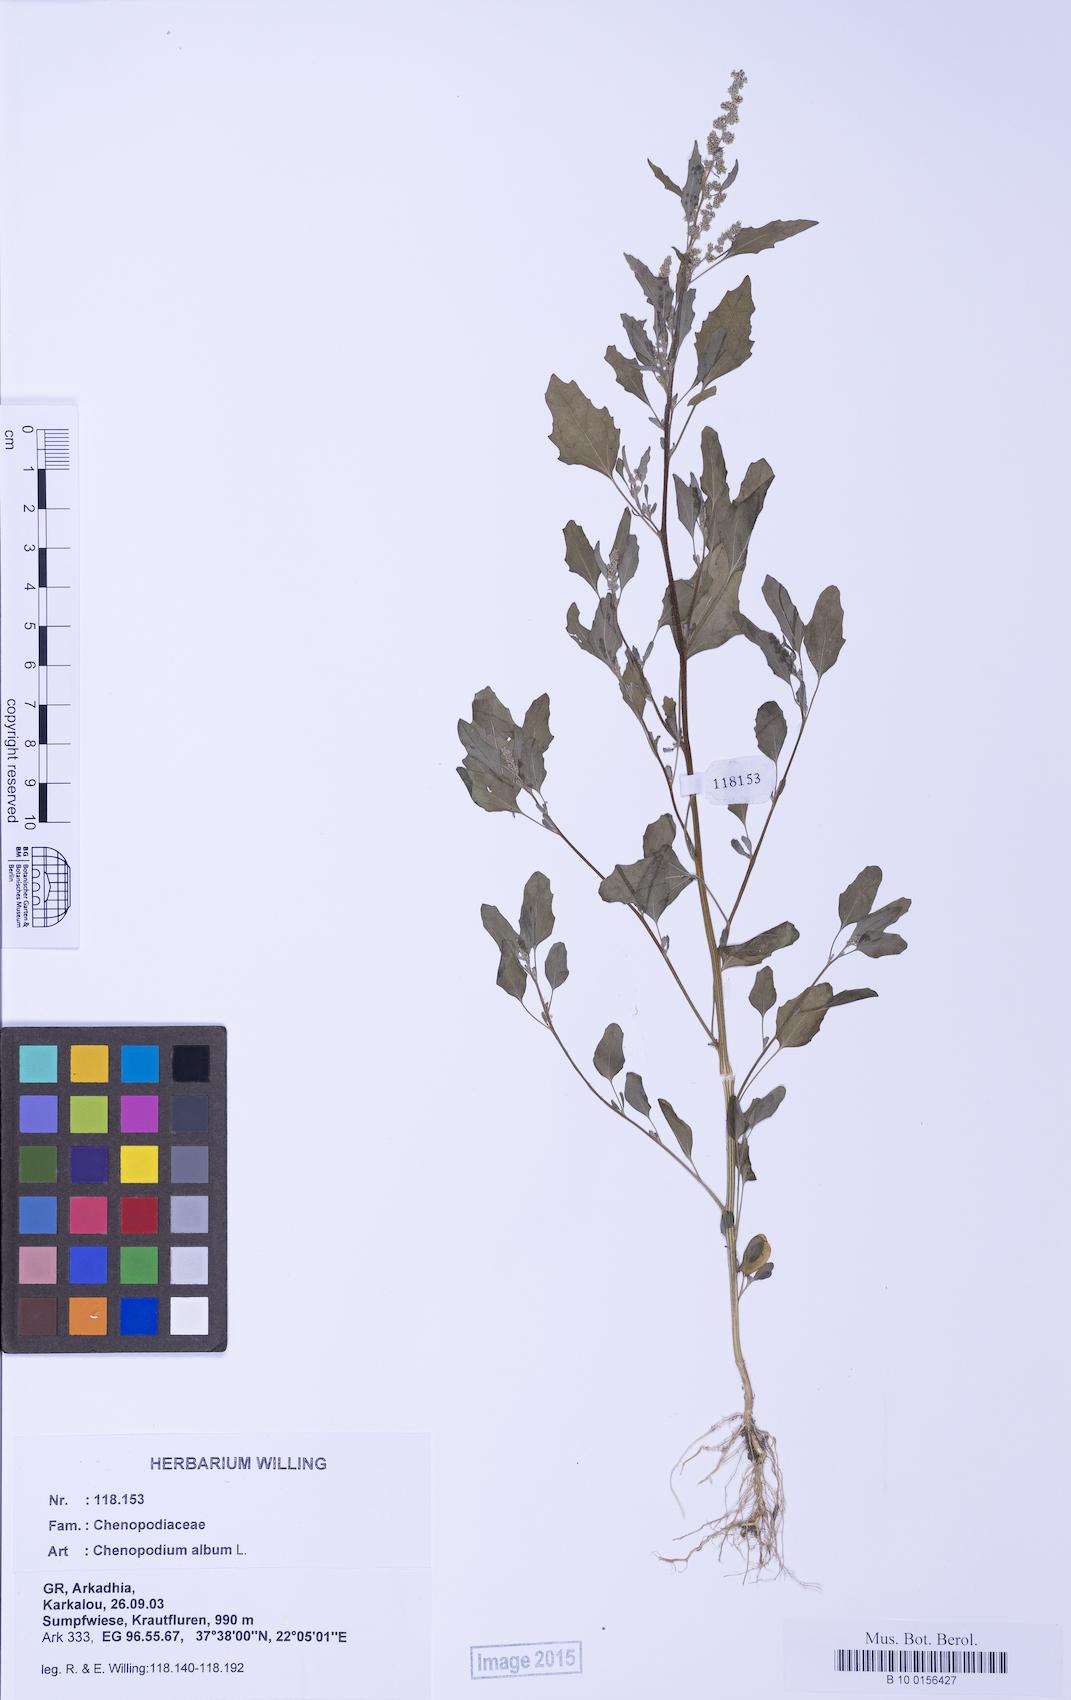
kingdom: Plantae
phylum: Tracheophyta
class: Magnoliopsida
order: Caryophyllales
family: Amaranthaceae
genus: Chenopodium
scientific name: Chenopodium album
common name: Fat-hen
